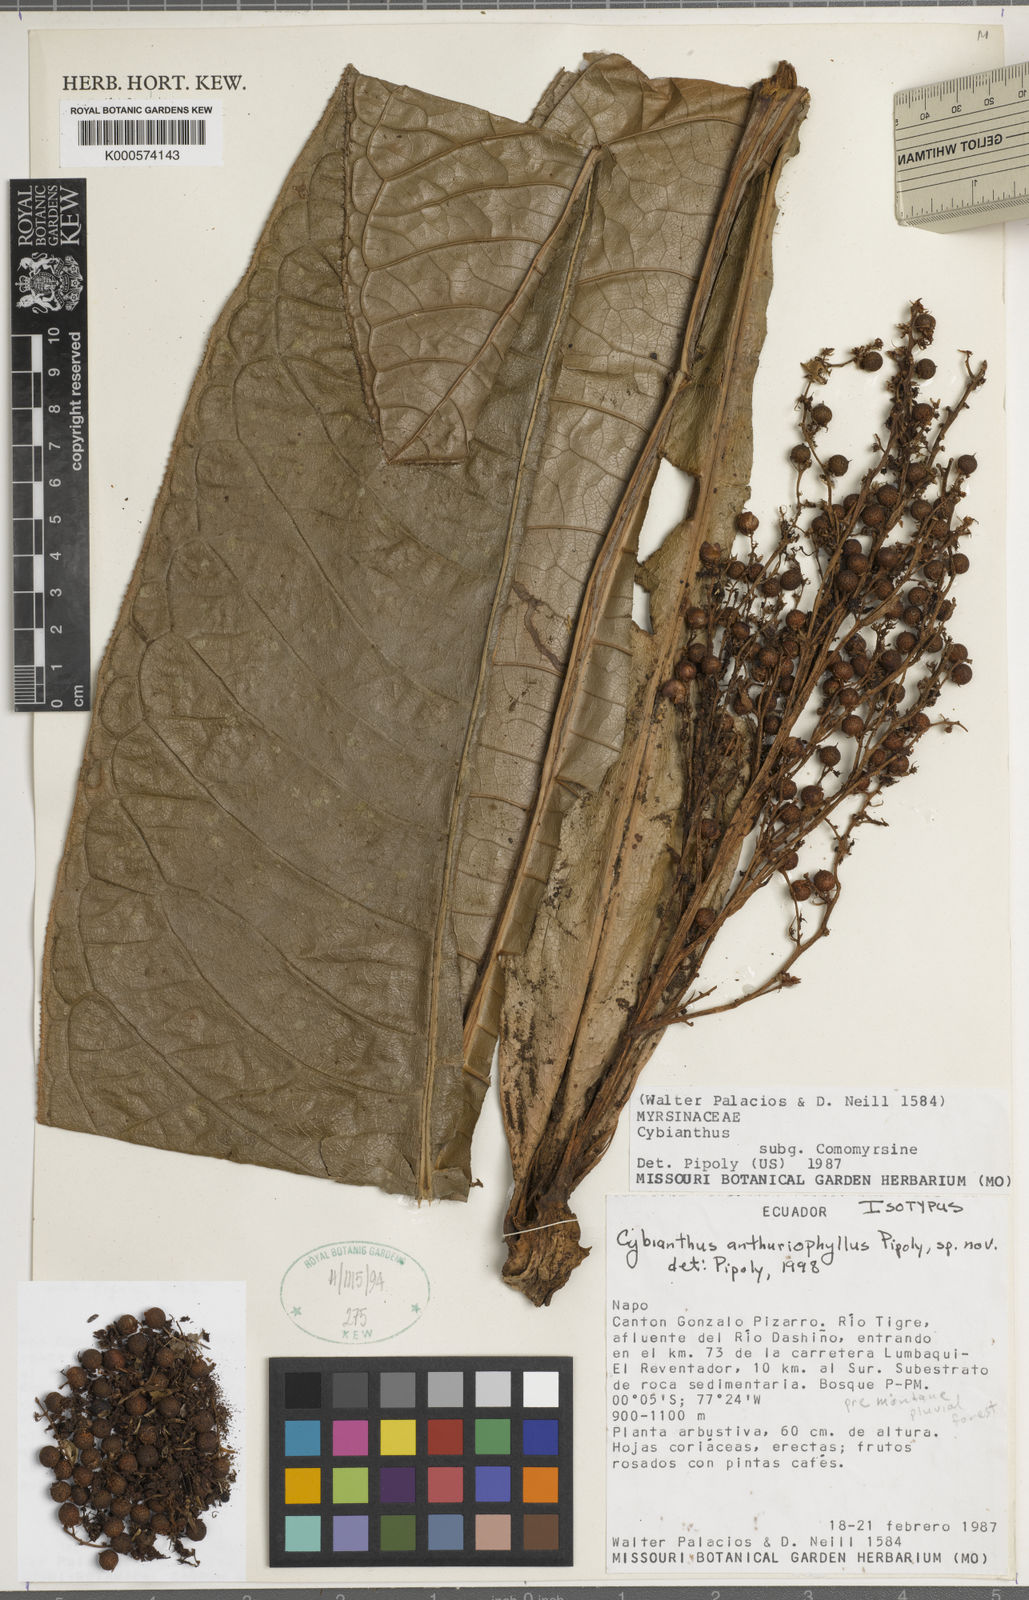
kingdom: Plantae
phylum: Tracheophyta
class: Magnoliopsida
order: Ericales
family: Primulaceae
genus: Cybianthus
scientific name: Cybianthus anthuriophyllus
